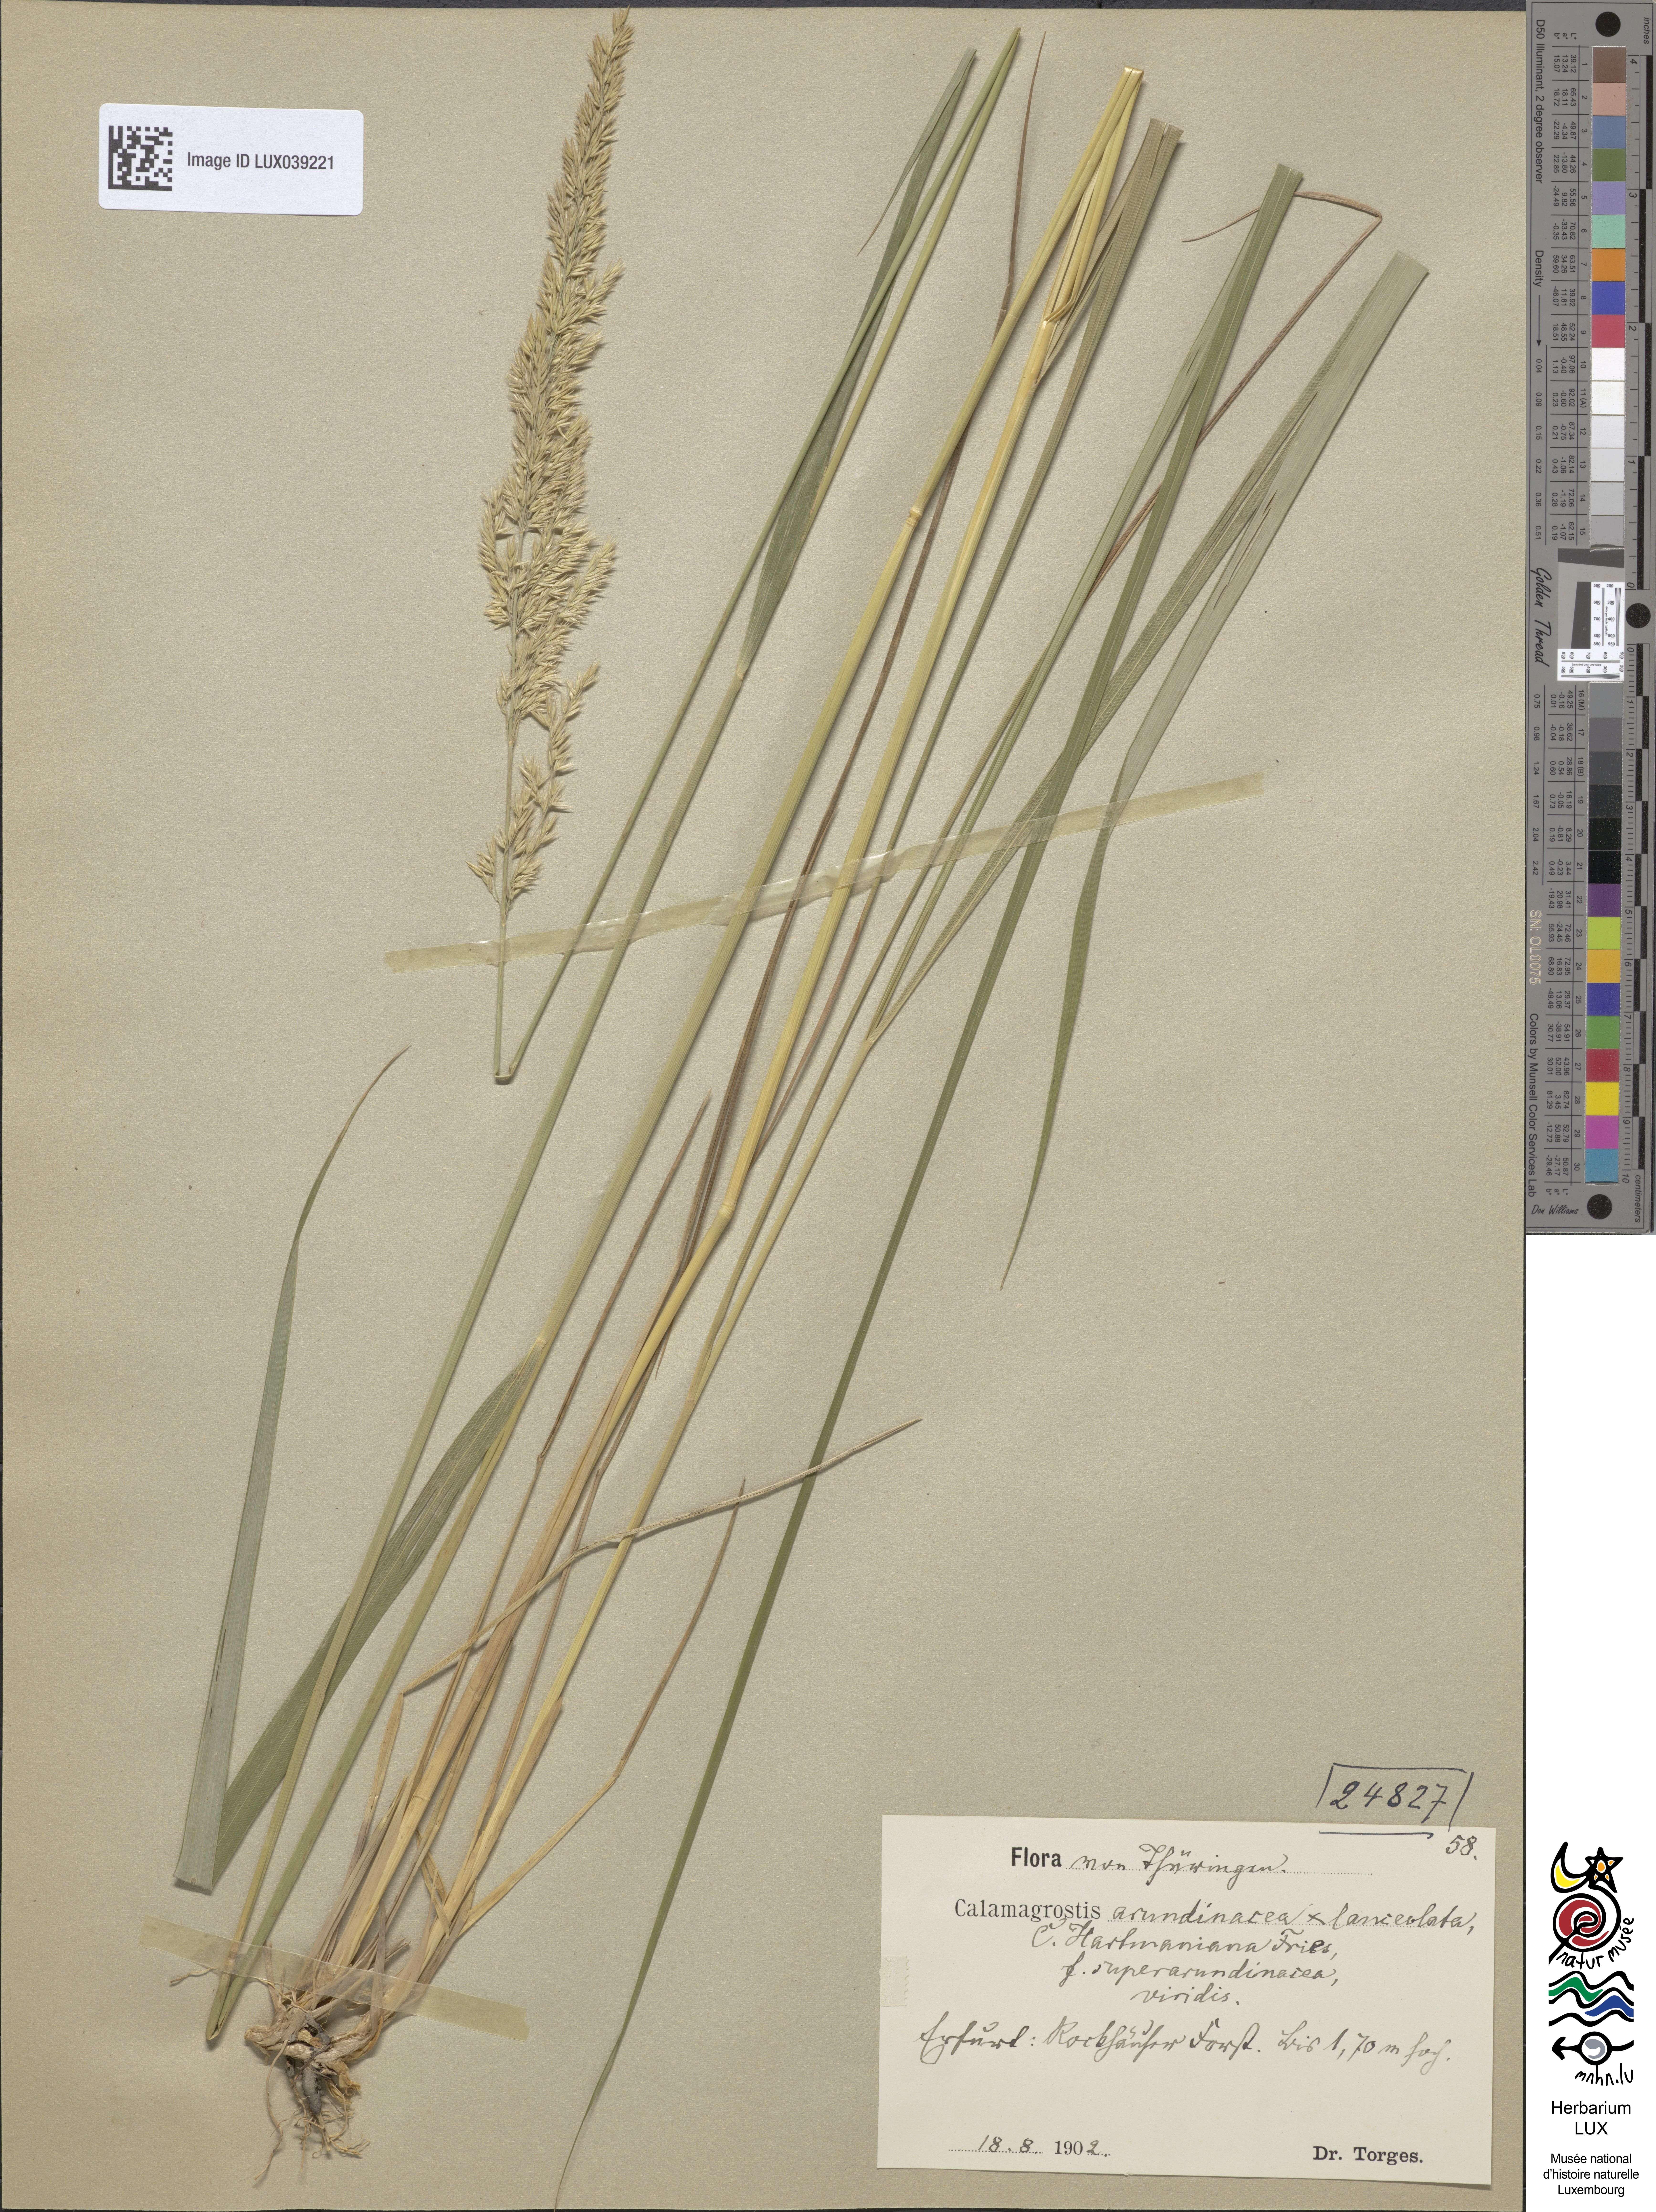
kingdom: Plantae
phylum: Tracheophyta
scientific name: Tracheophyta
